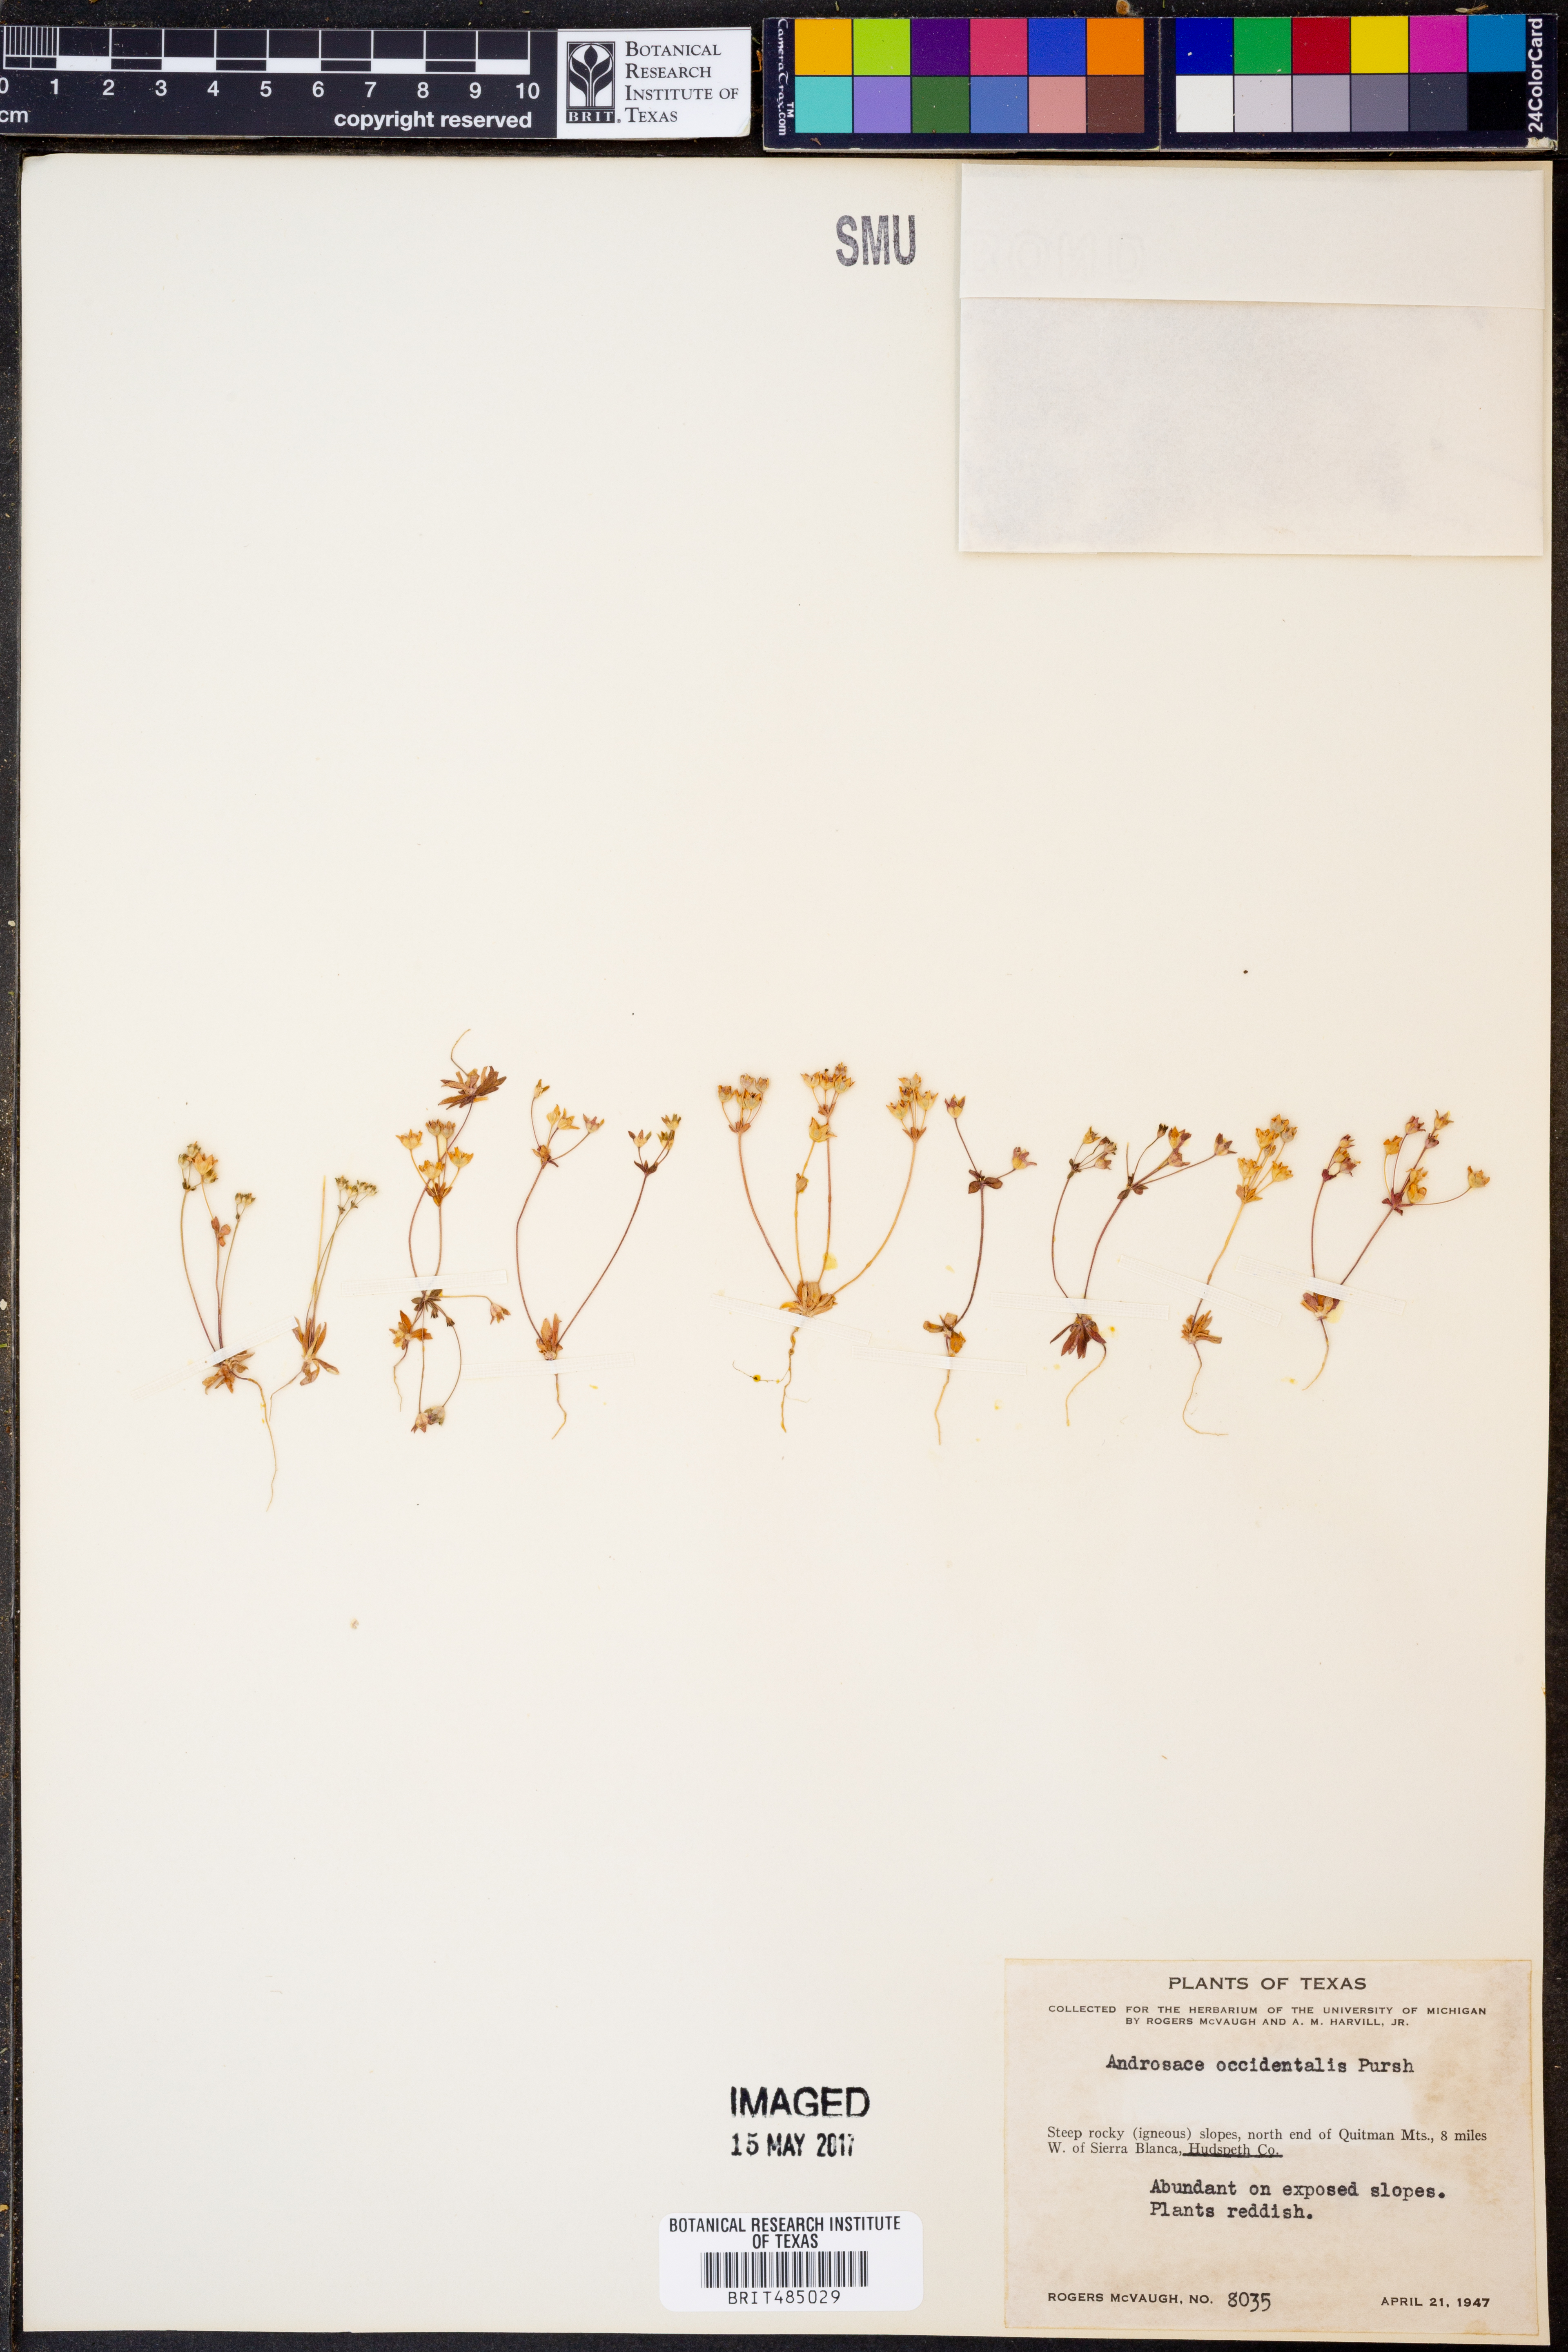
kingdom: Plantae
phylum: Tracheophyta
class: Magnoliopsida
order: Ericales
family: Primulaceae
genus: Androsace
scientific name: Androsace occidentalis
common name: West rock-jasmine
